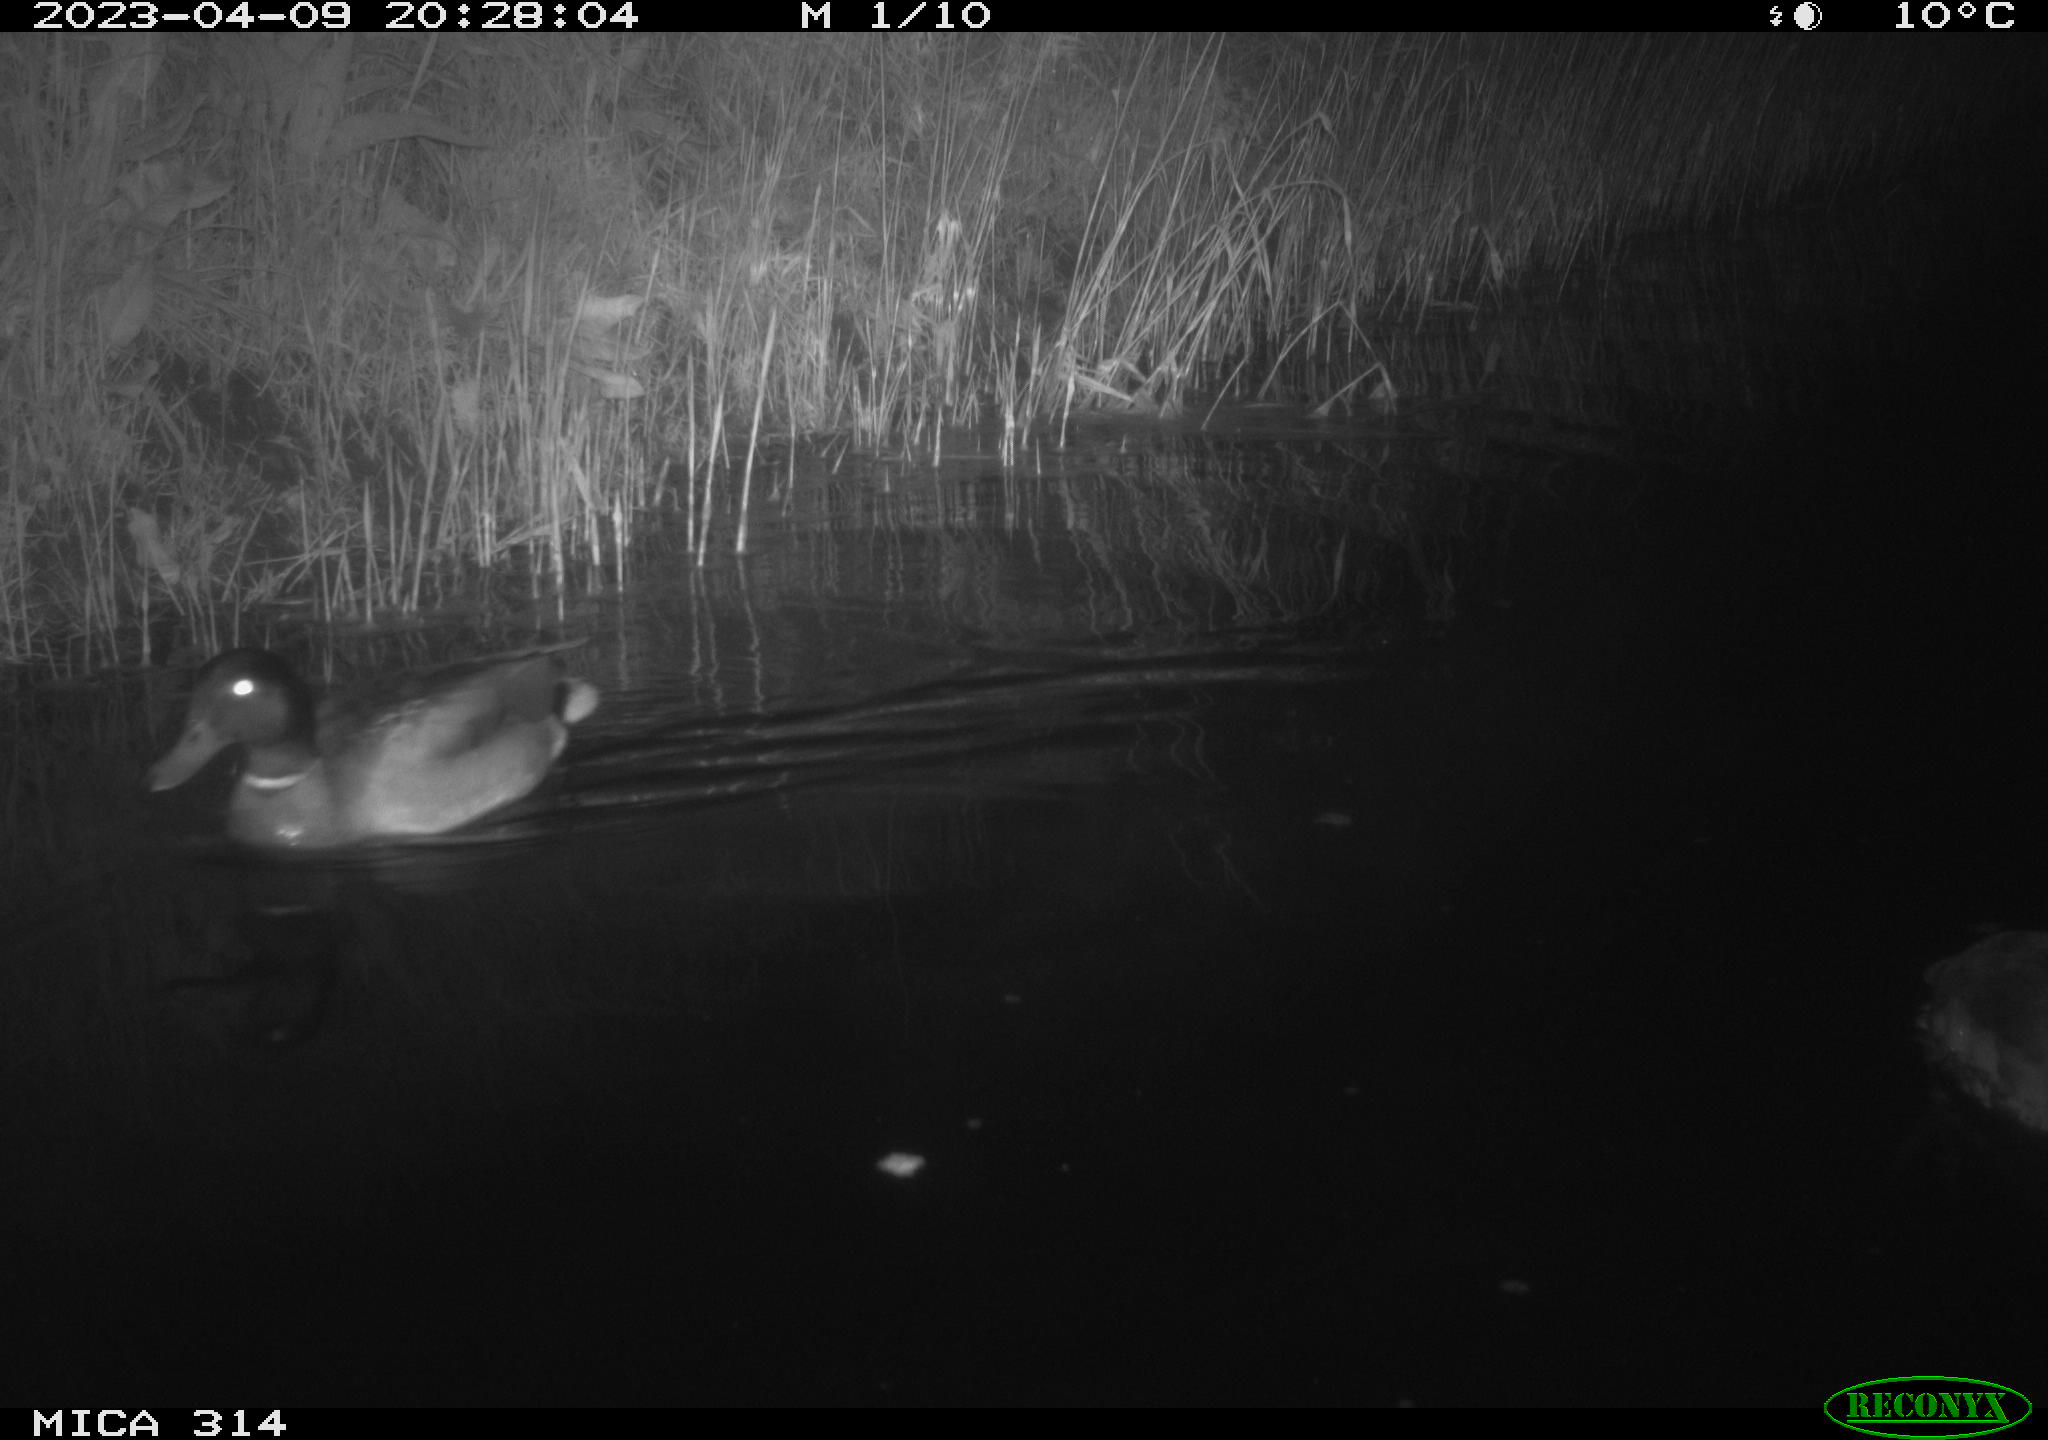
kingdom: Animalia
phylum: Chordata
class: Aves
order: Anseriformes
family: Anatidae
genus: Anas
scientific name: Anas
